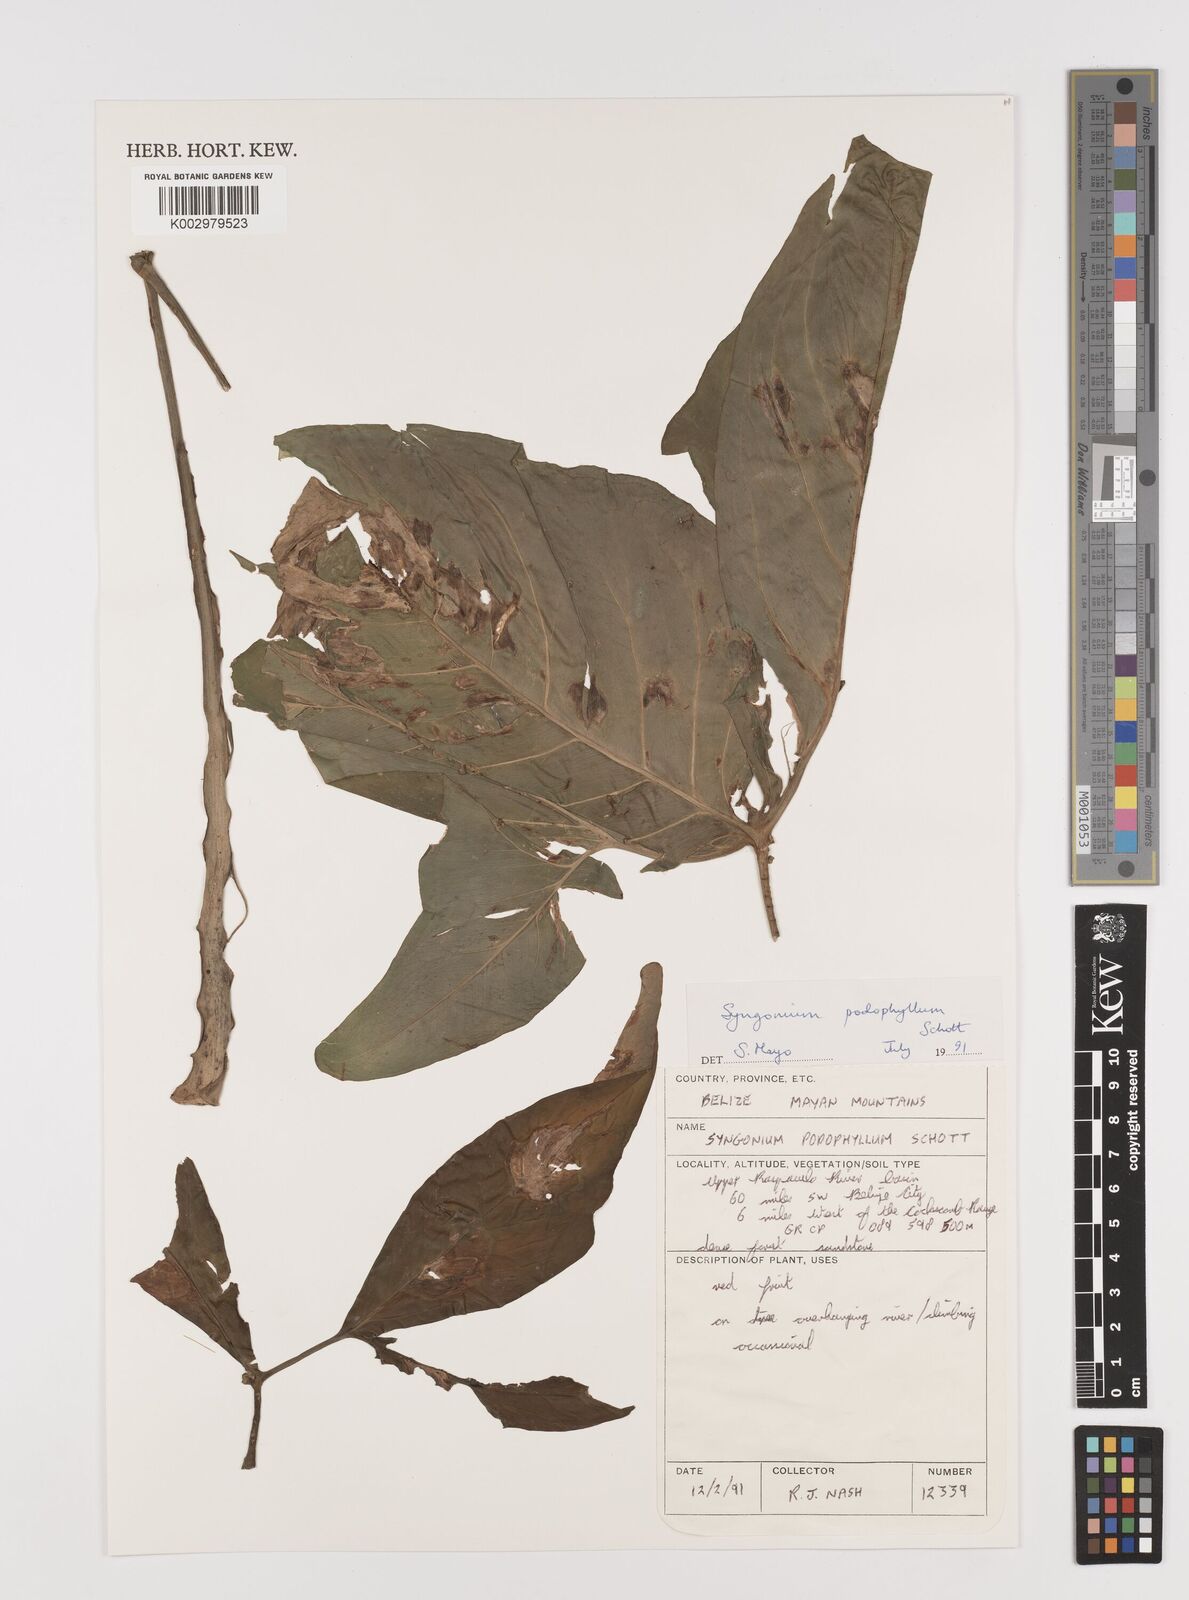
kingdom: Plantae
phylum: Tracheophyta
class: Liliopsida
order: Alismatales
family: Araceae
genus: Syngonium
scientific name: Syngonium podophyllum
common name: American evergreen
